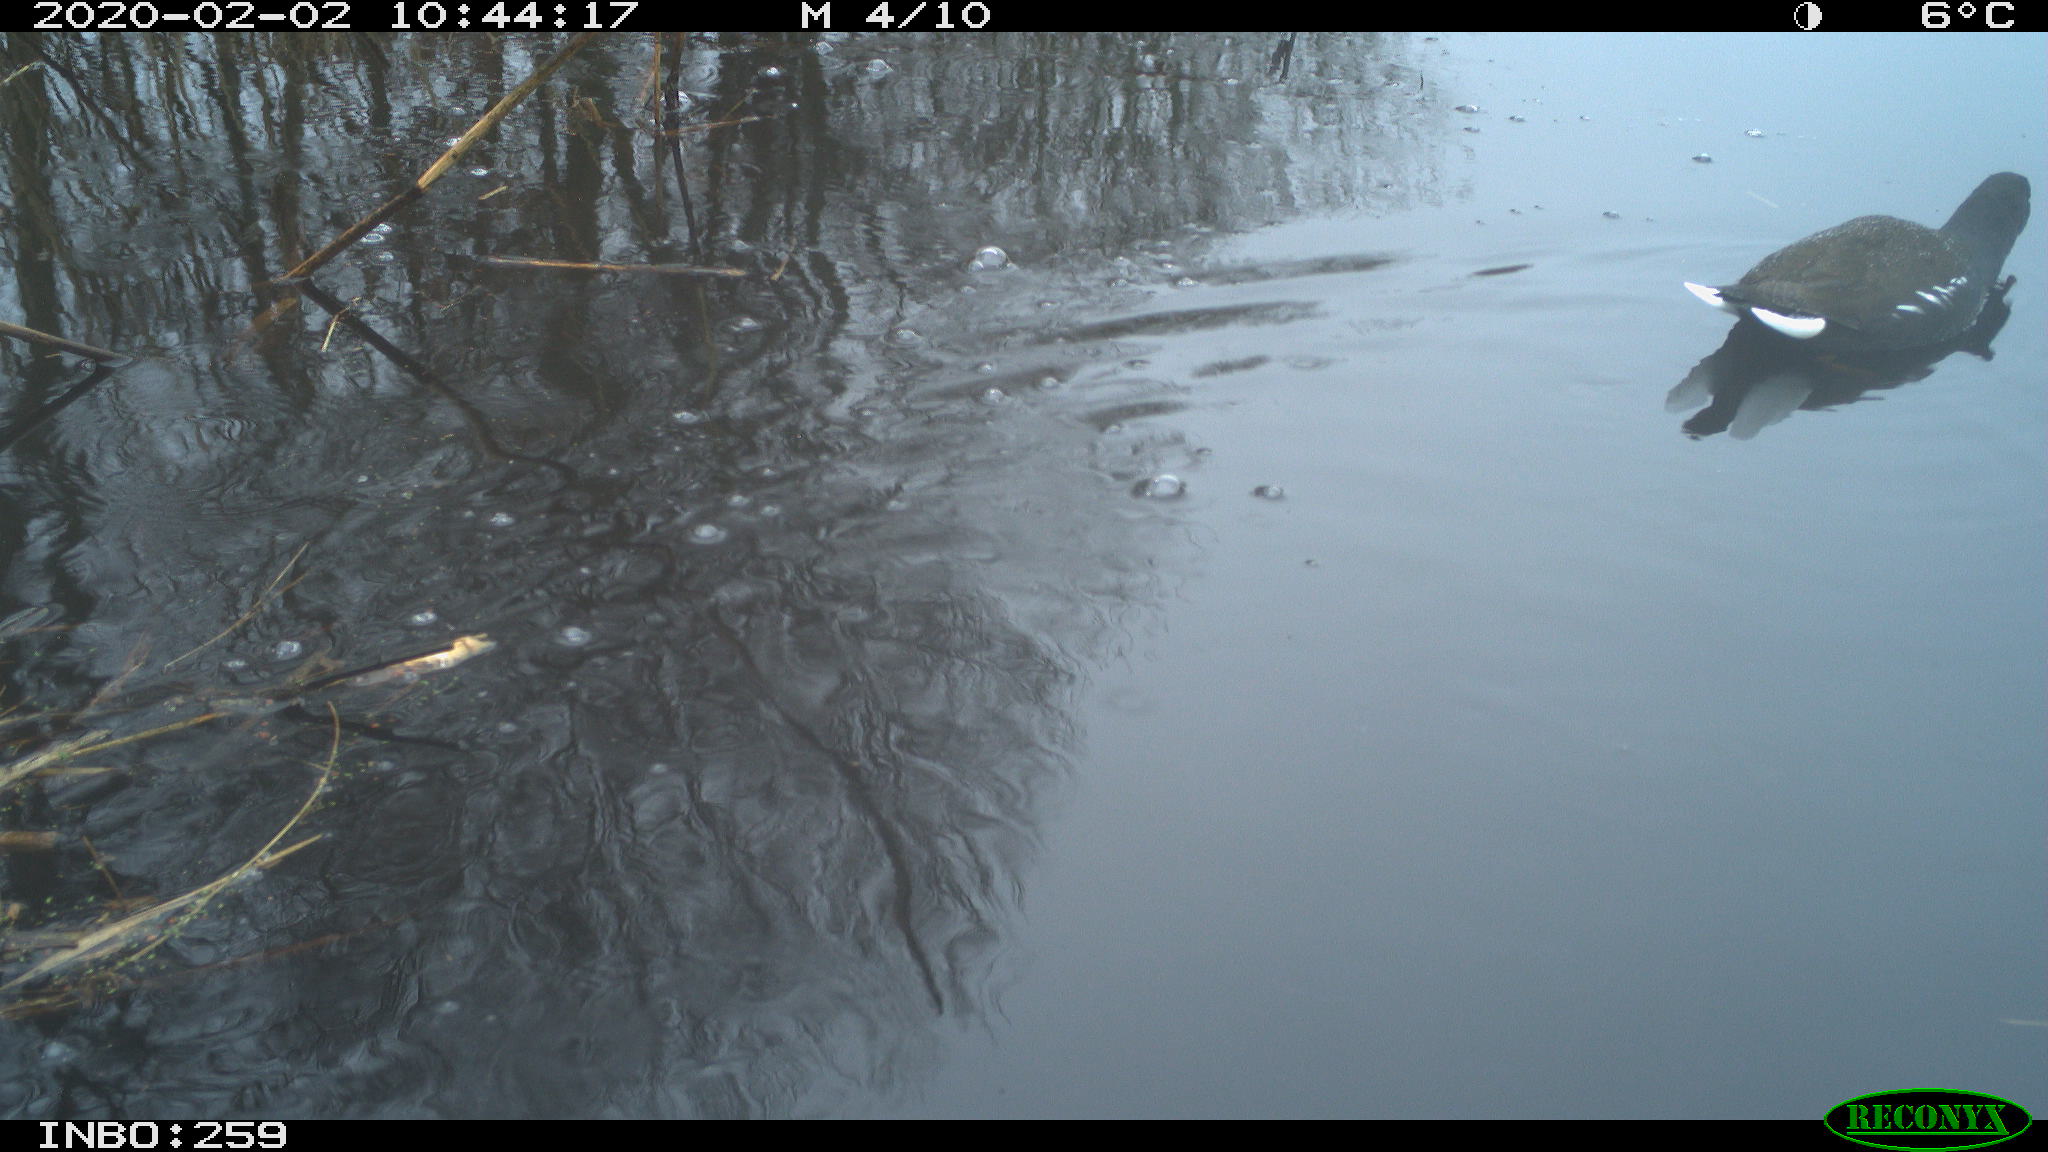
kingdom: Animalia
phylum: Chordata
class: Aves
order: Gruiformes
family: Rallidae
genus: Gallinula
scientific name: Gallinula chloropus
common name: Common moorhen
